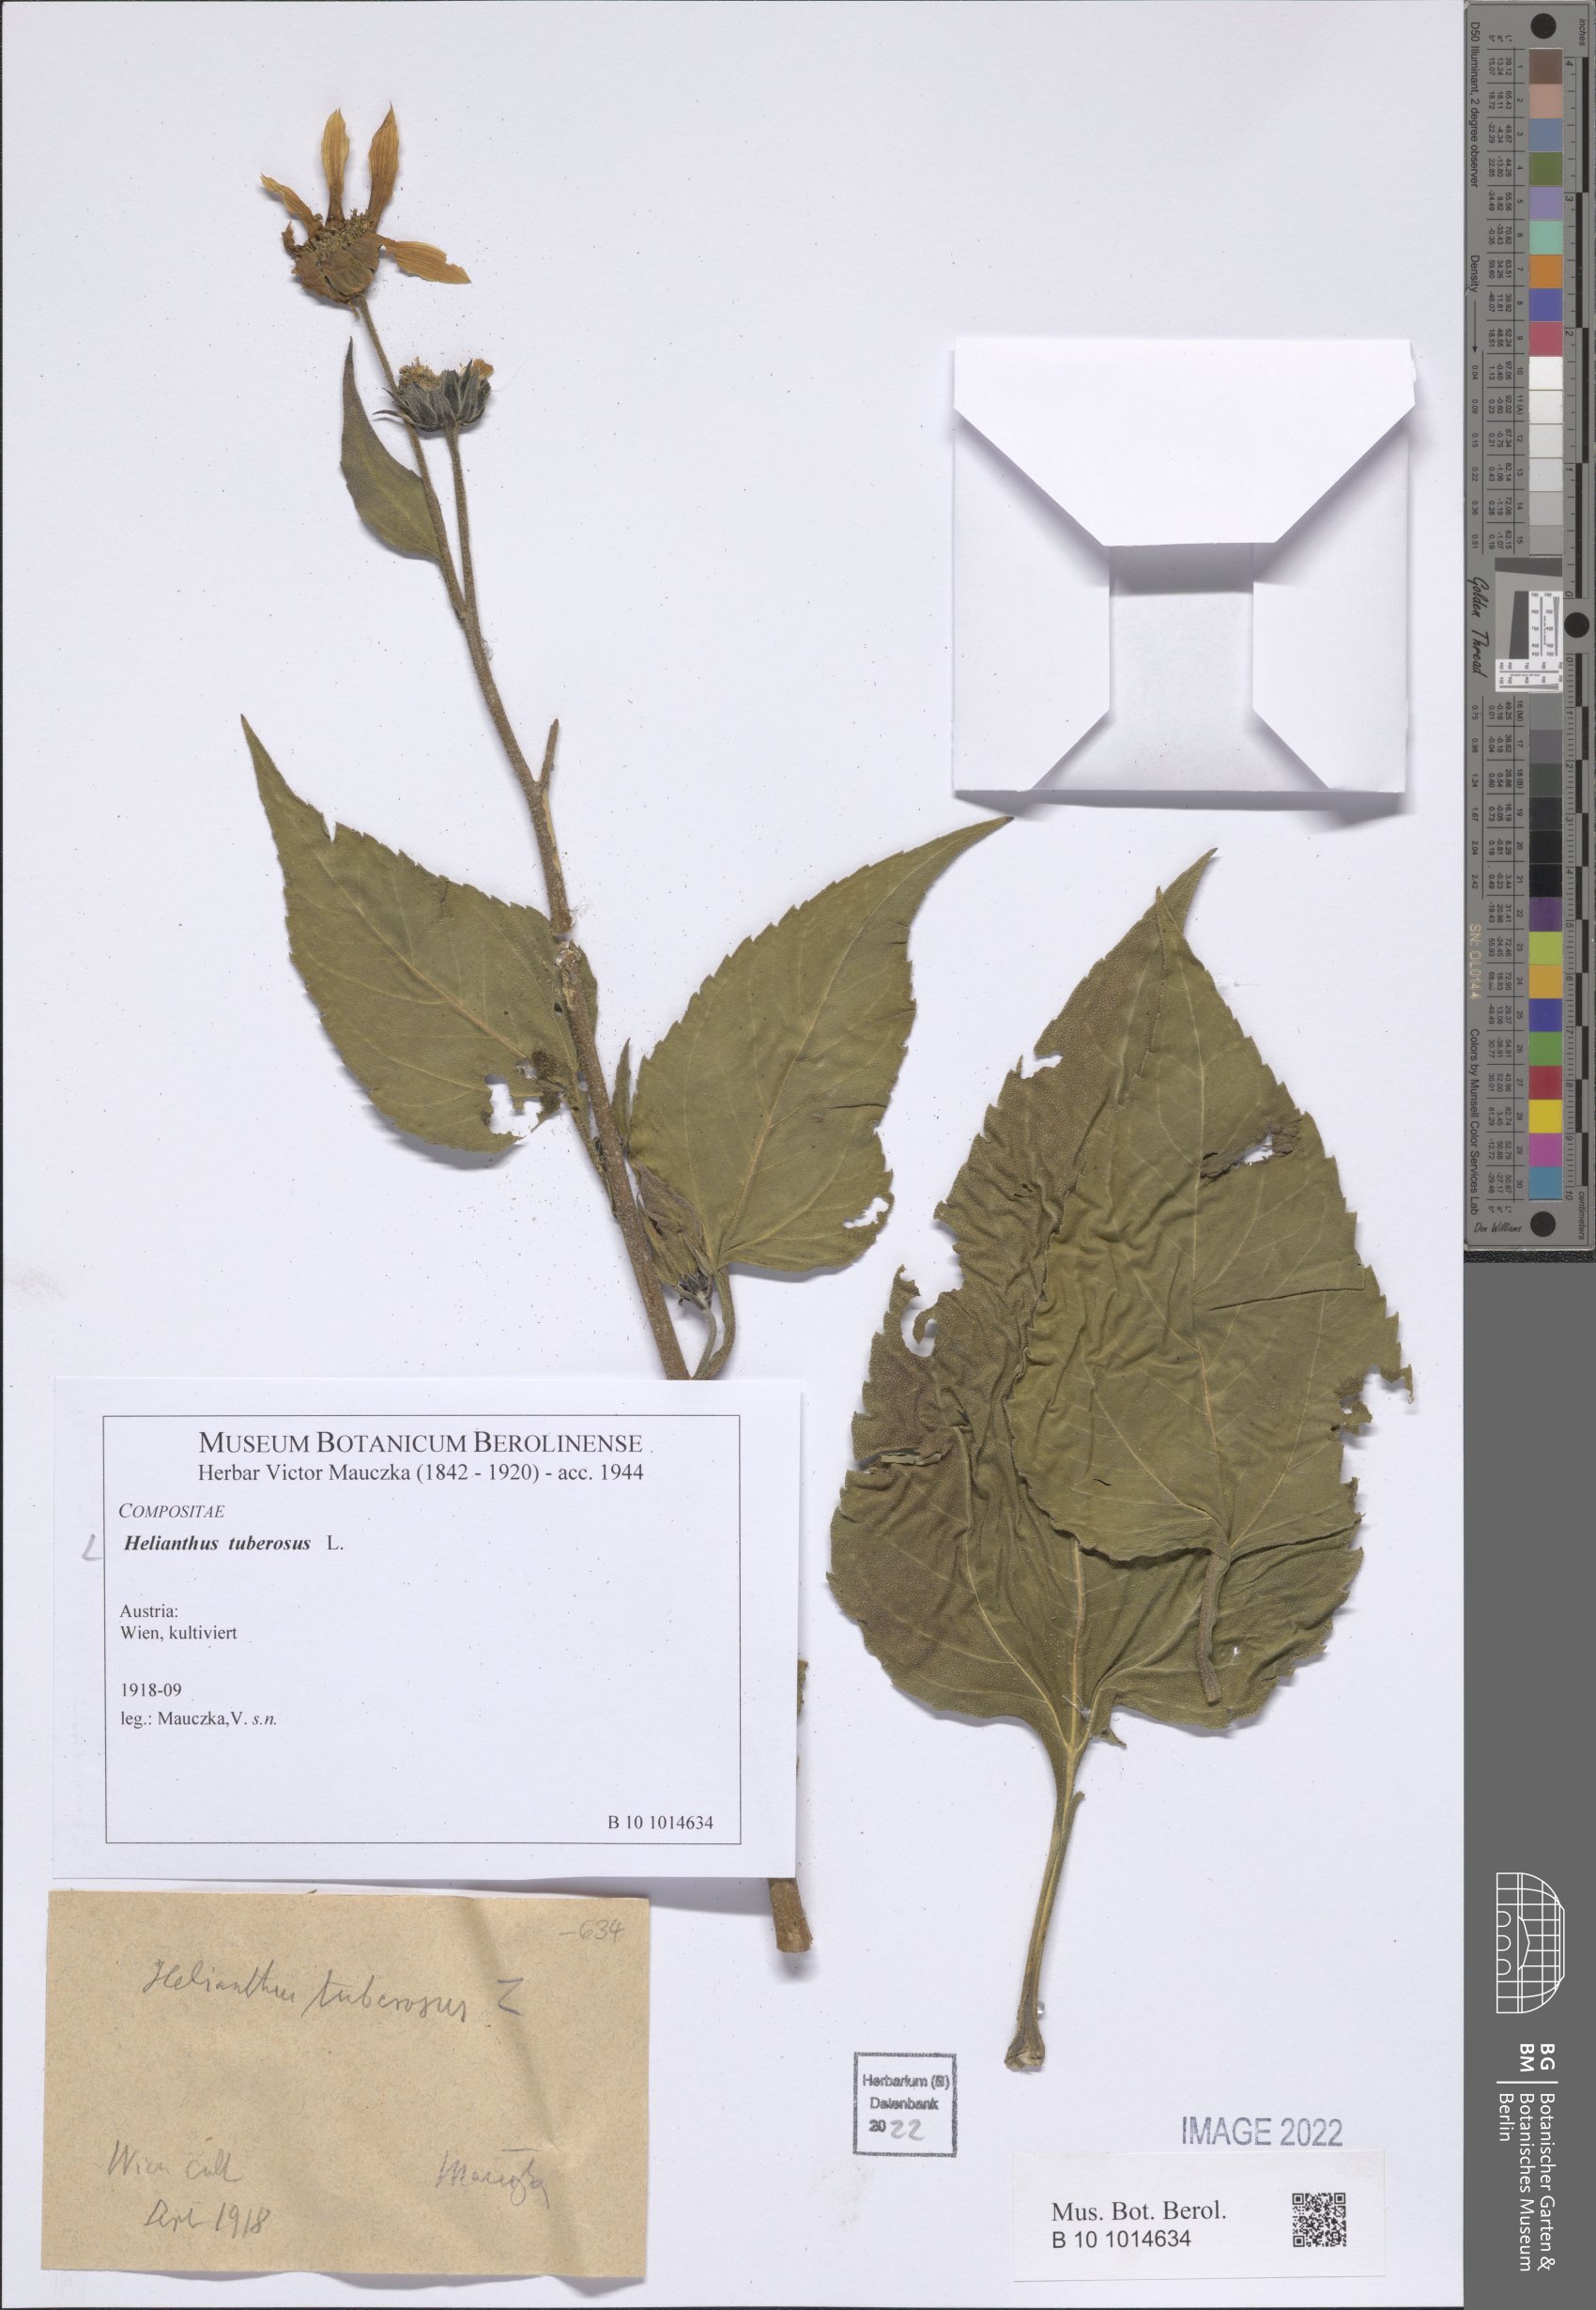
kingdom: Plantae
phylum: Tracheophyta
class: Magnoliopsida
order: Asterales
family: Asteraceae
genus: Helianthus
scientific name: Helianthus tuberosus
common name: Jerusalem artichoke
